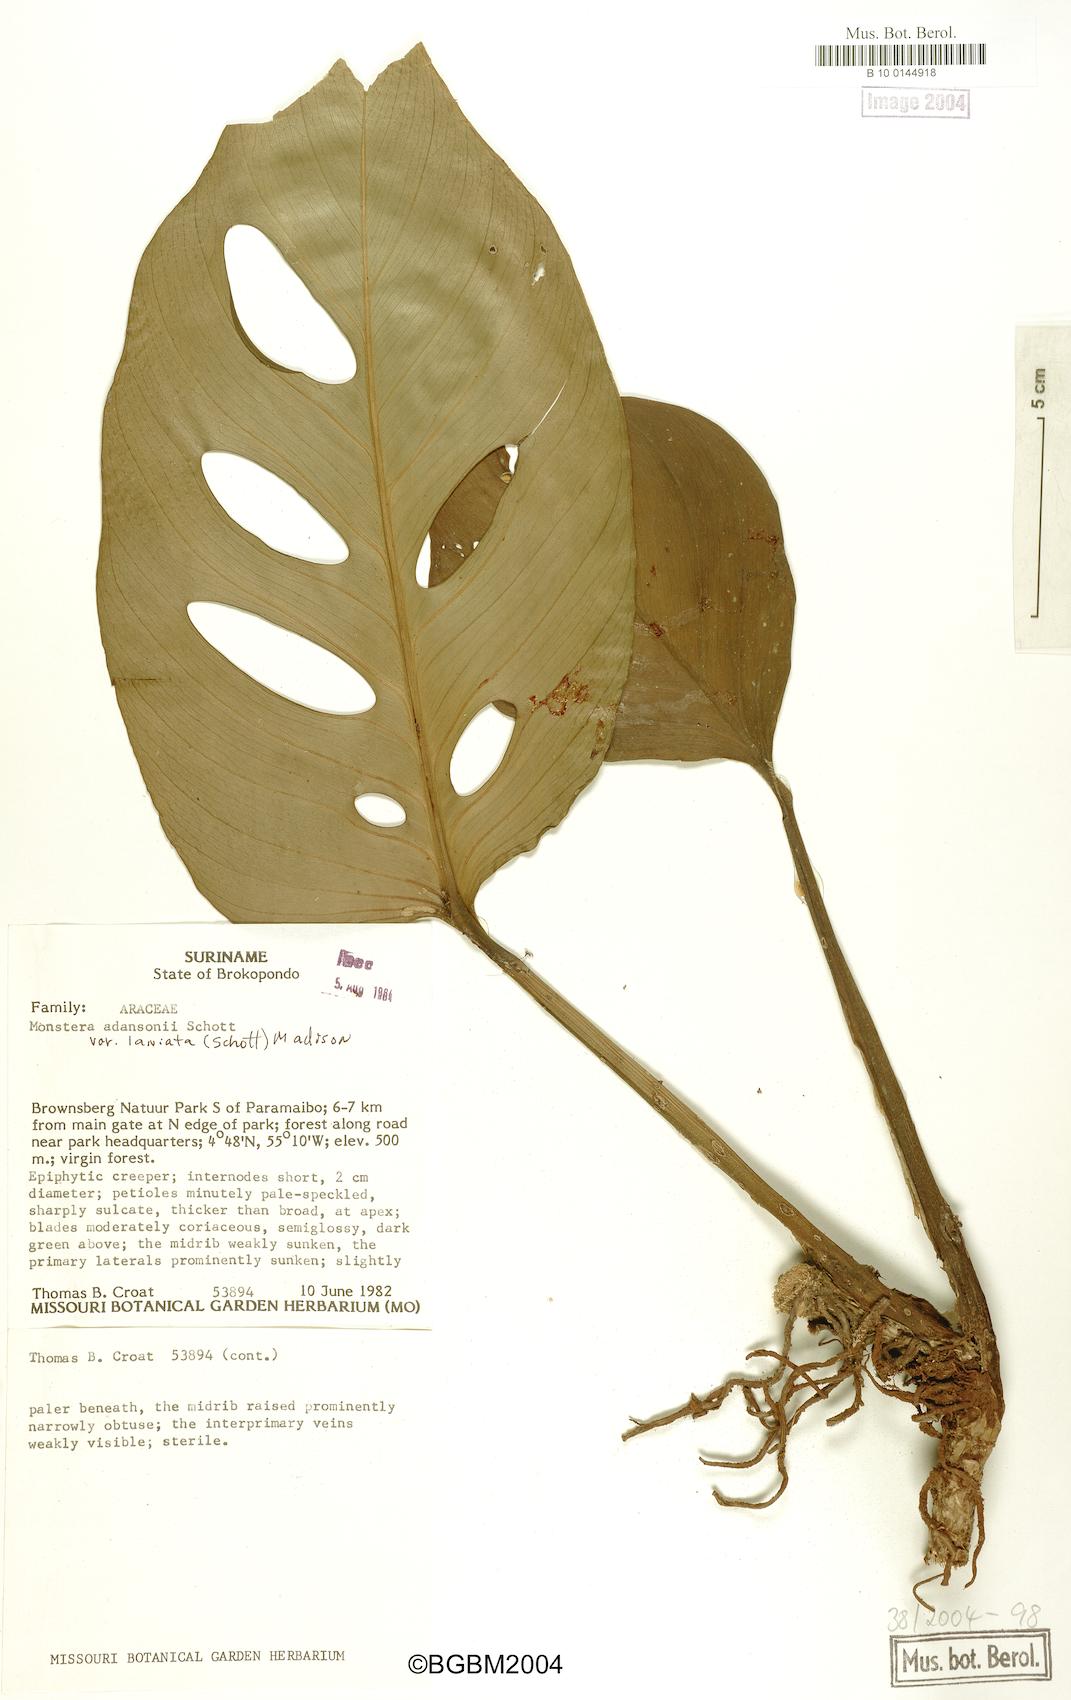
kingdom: Plantae
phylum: Tracheophyta
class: Liliopsida
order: Alismatales
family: Araceae
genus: Monstera
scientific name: Monstera adansonii
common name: Tarovine
